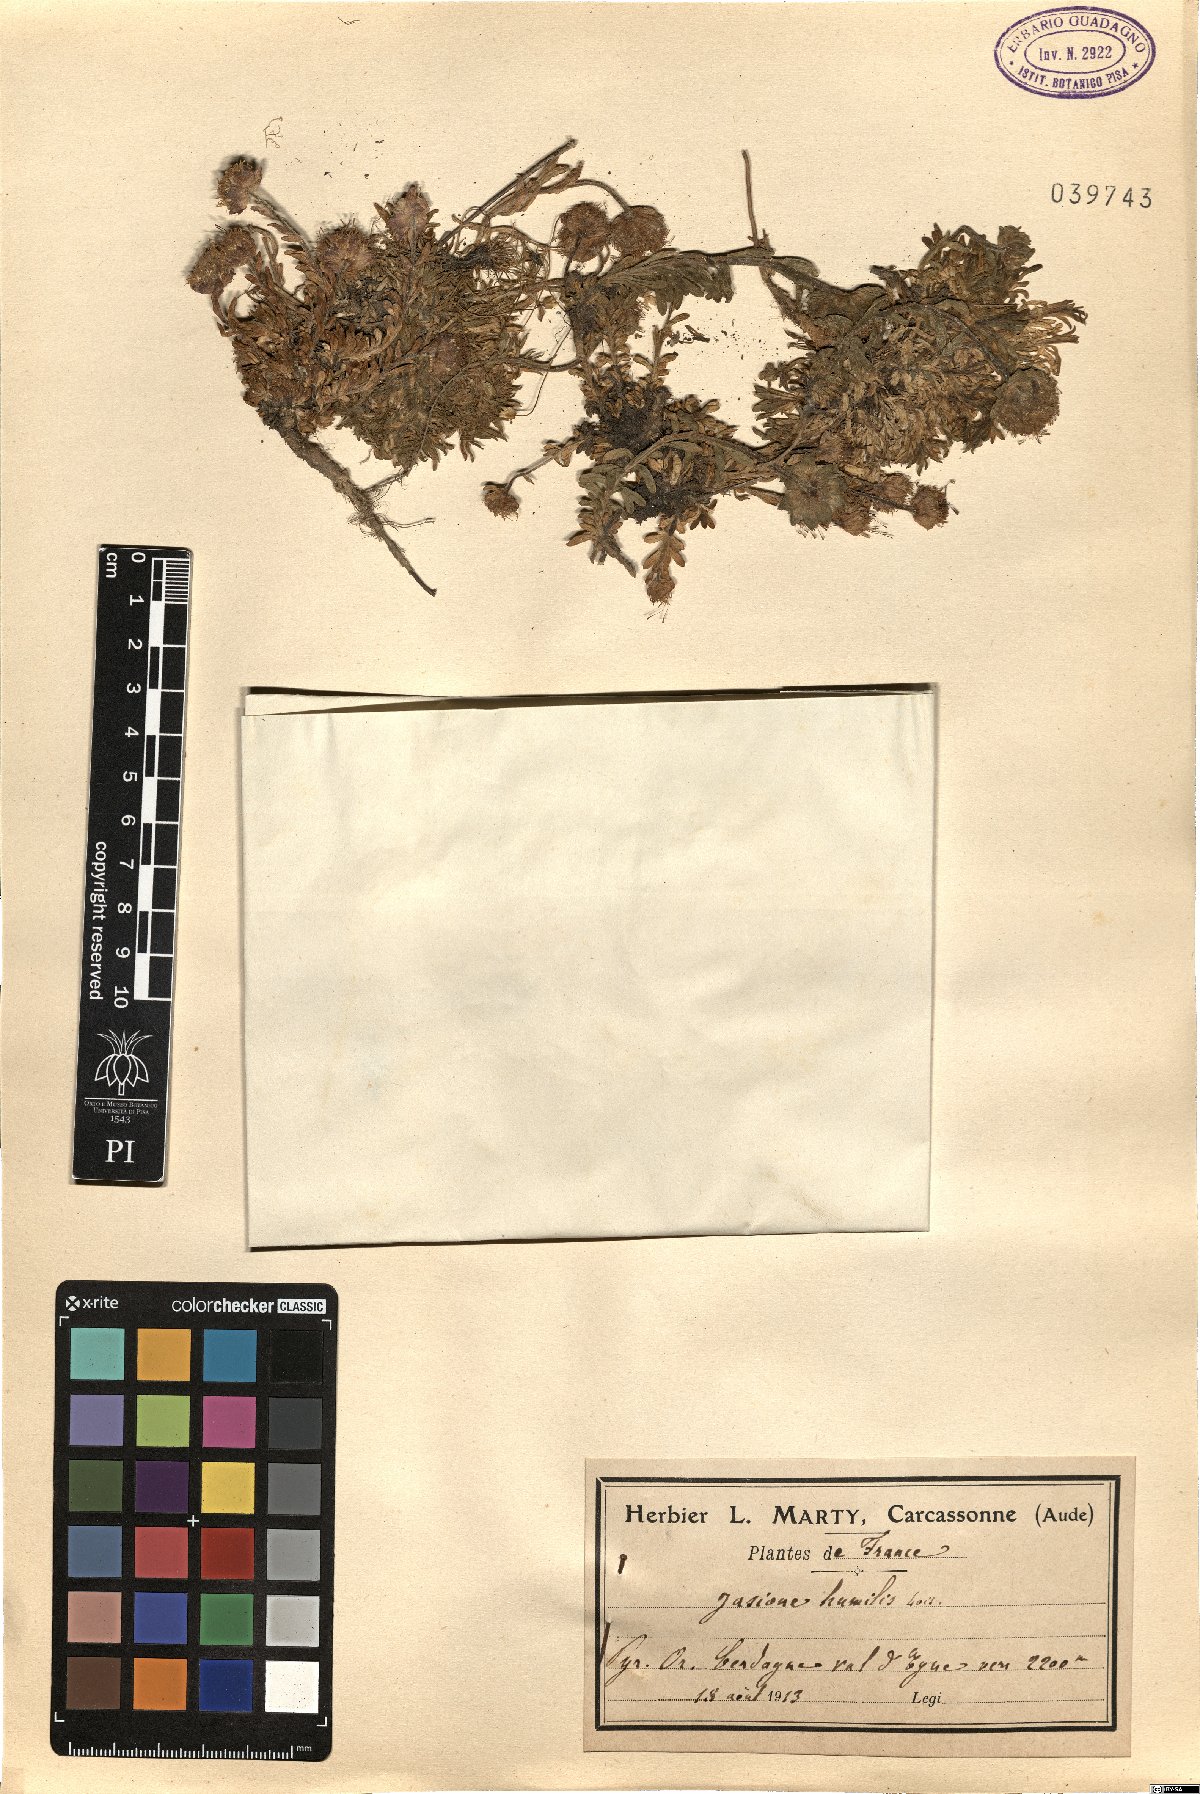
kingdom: Plantae
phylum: Tracheophyta
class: Magnoliopsida
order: Asterales
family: Campanulaceae
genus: Jasione
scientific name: Jasione crispa
